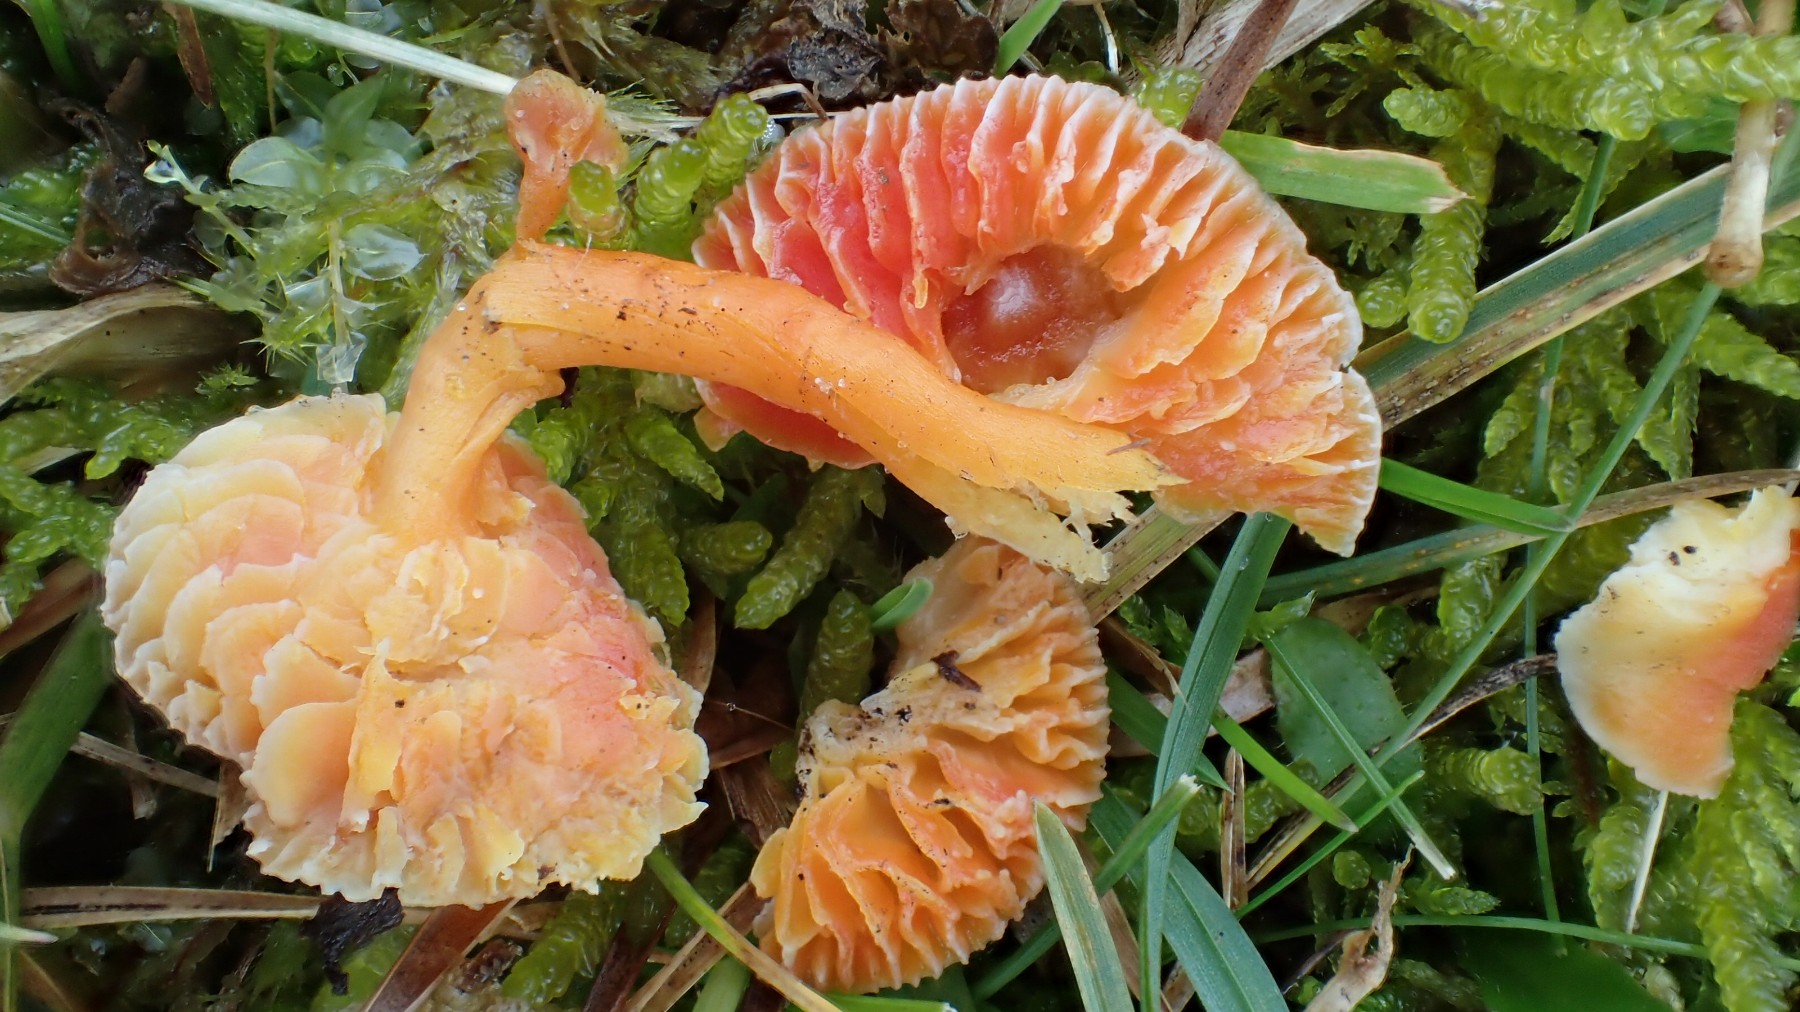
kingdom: Fungi
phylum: Basidiomycota
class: Agaricomycetes
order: Agaricales
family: Hygrophoraceae
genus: Hygrocybe
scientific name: Hygrocybe
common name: vokshat
